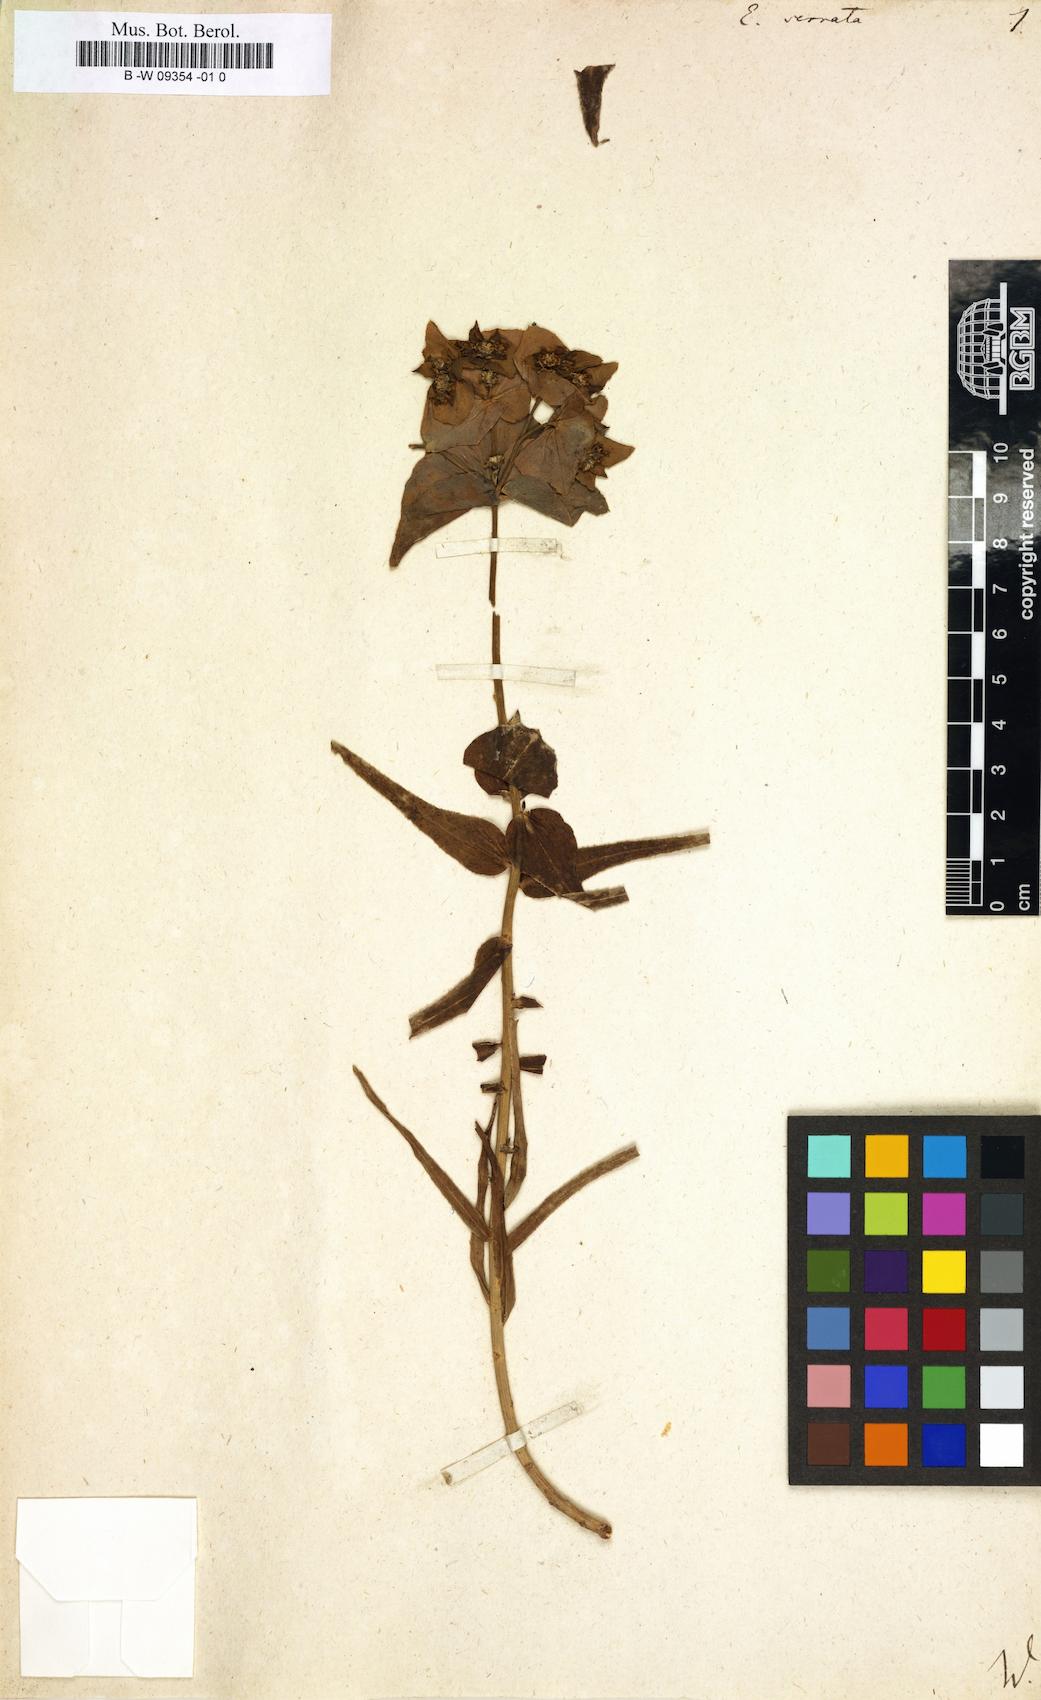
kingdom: Plantae
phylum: Tracheophyta
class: Magnoliopsida
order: Malpighiales
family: Euphorbiaceae
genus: Euphorbia
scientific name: Euphorbia serrata
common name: Serrate spurge
